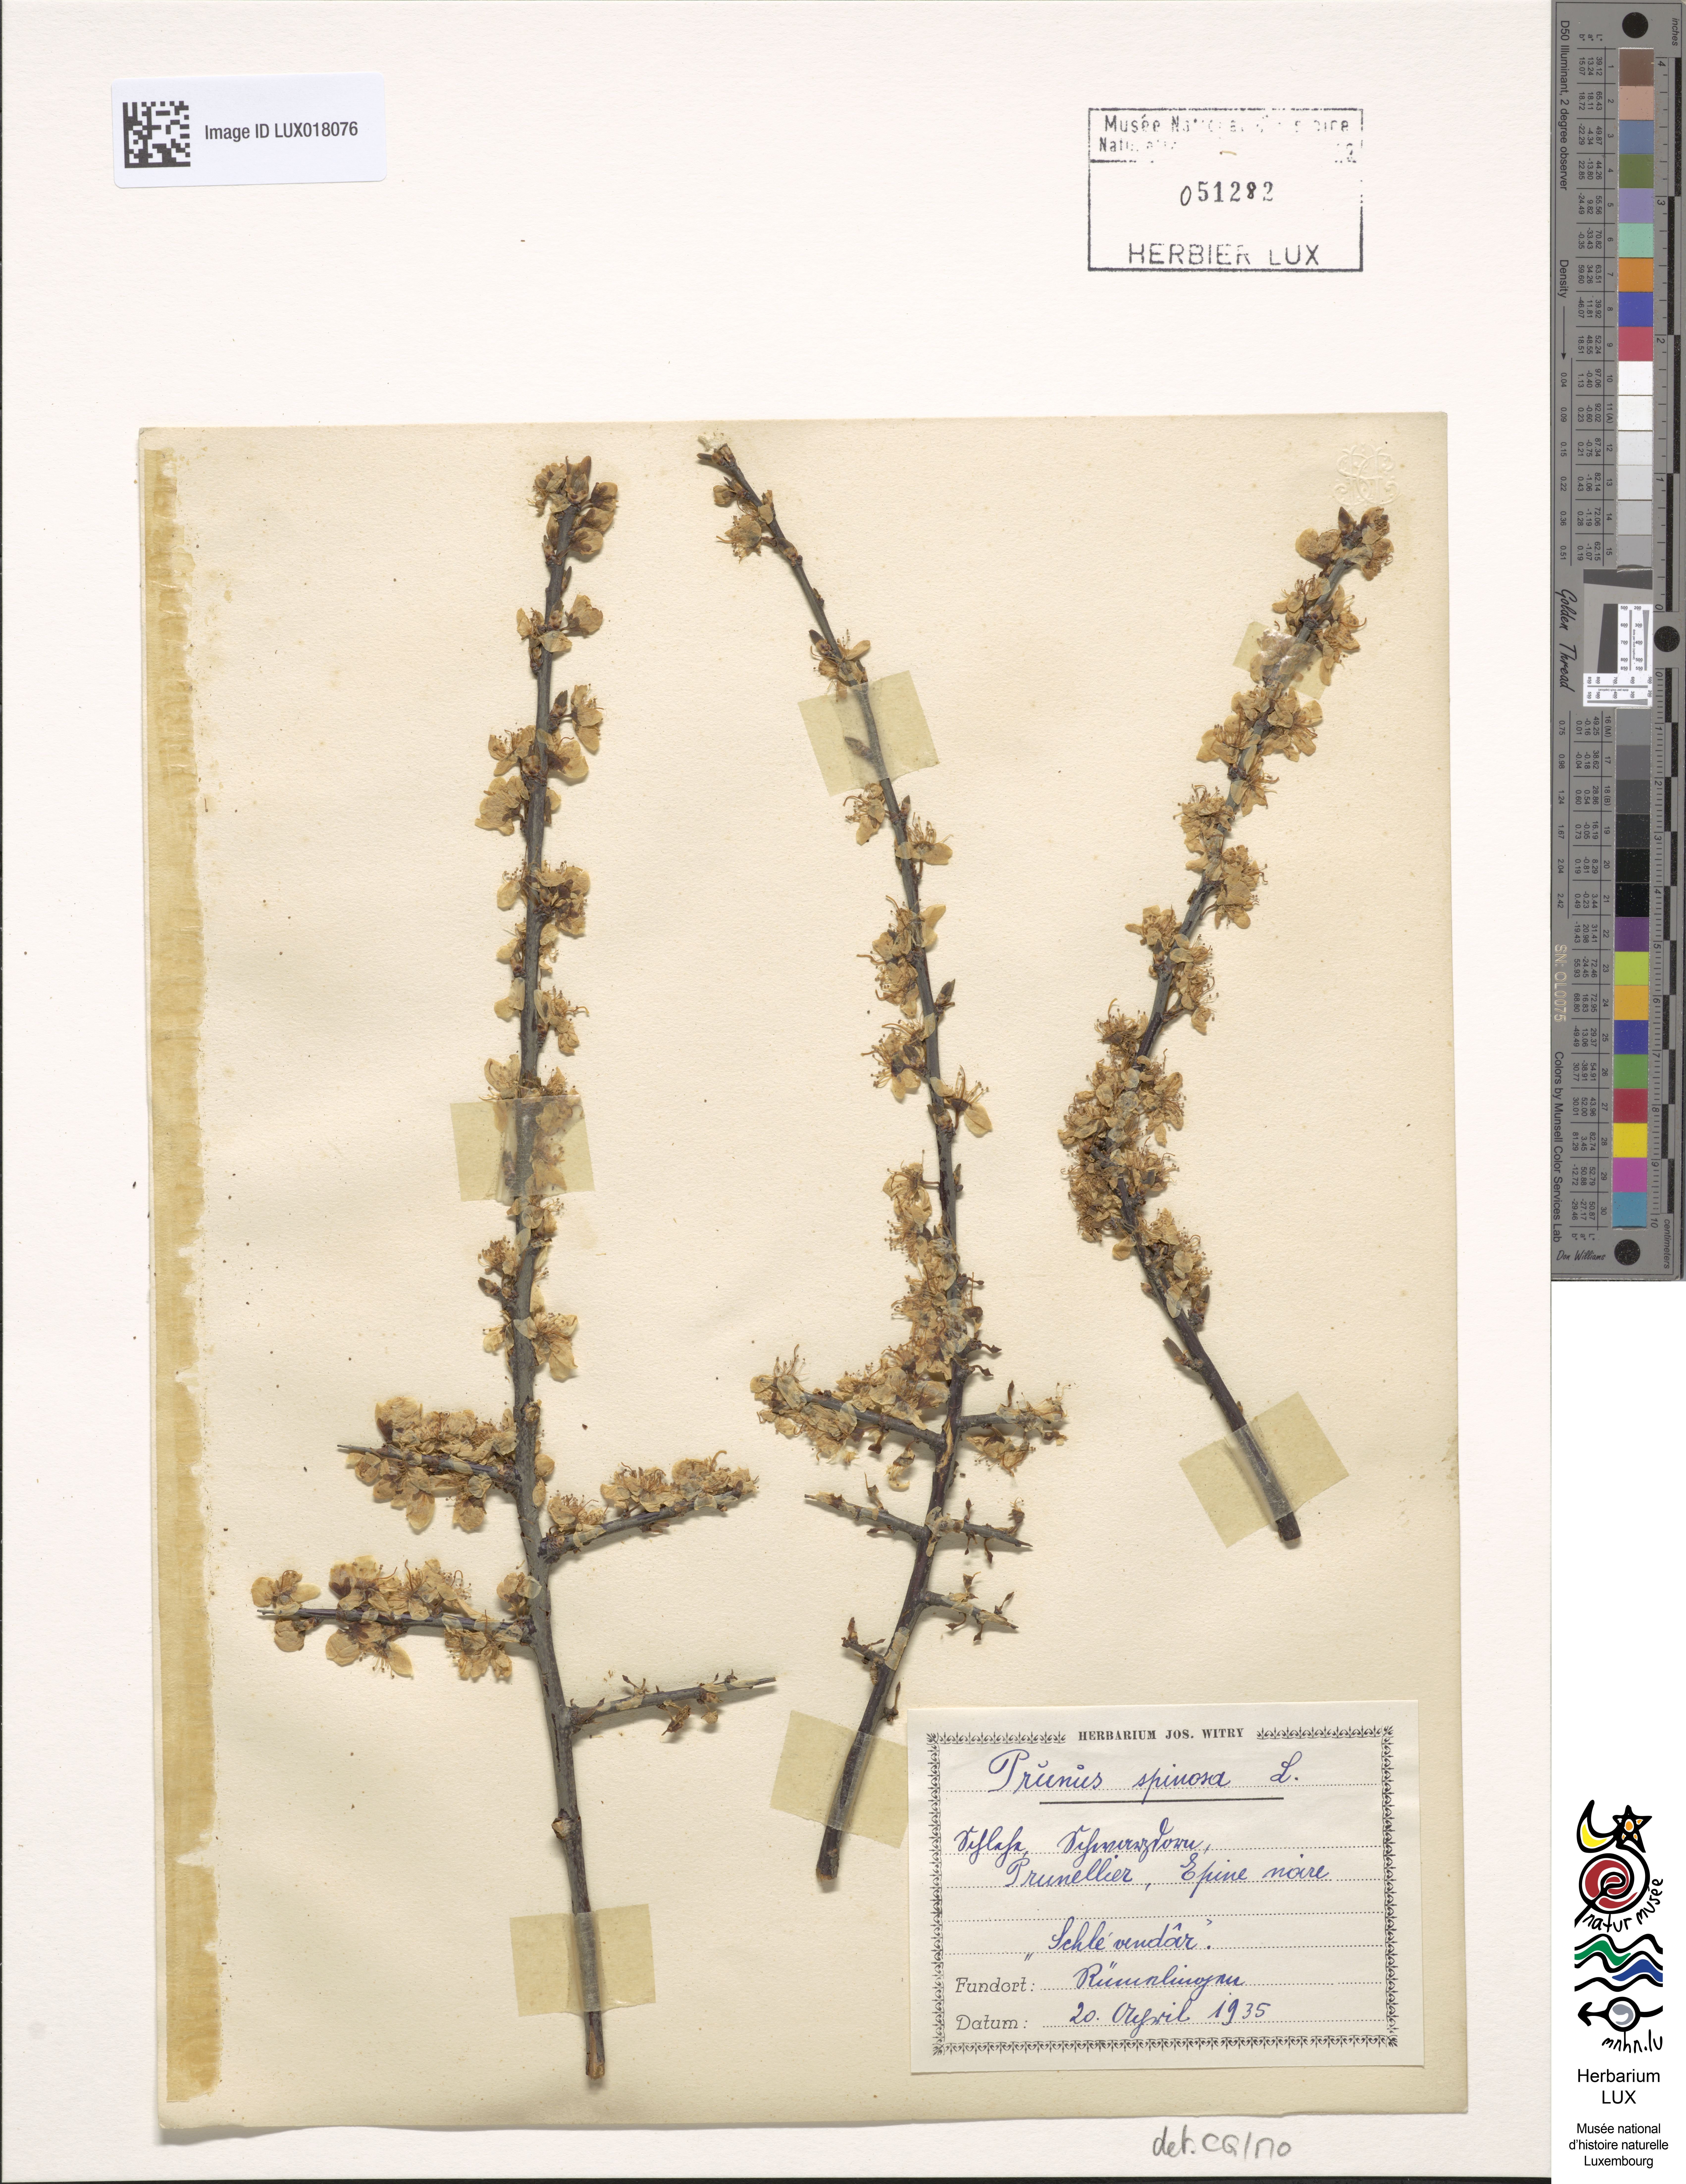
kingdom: Plantae
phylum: Tracheophyta
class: Magnoliopsida
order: Rosales
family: Rosaceae
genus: Prunus
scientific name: Prunus spinosa
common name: Blackthorn
